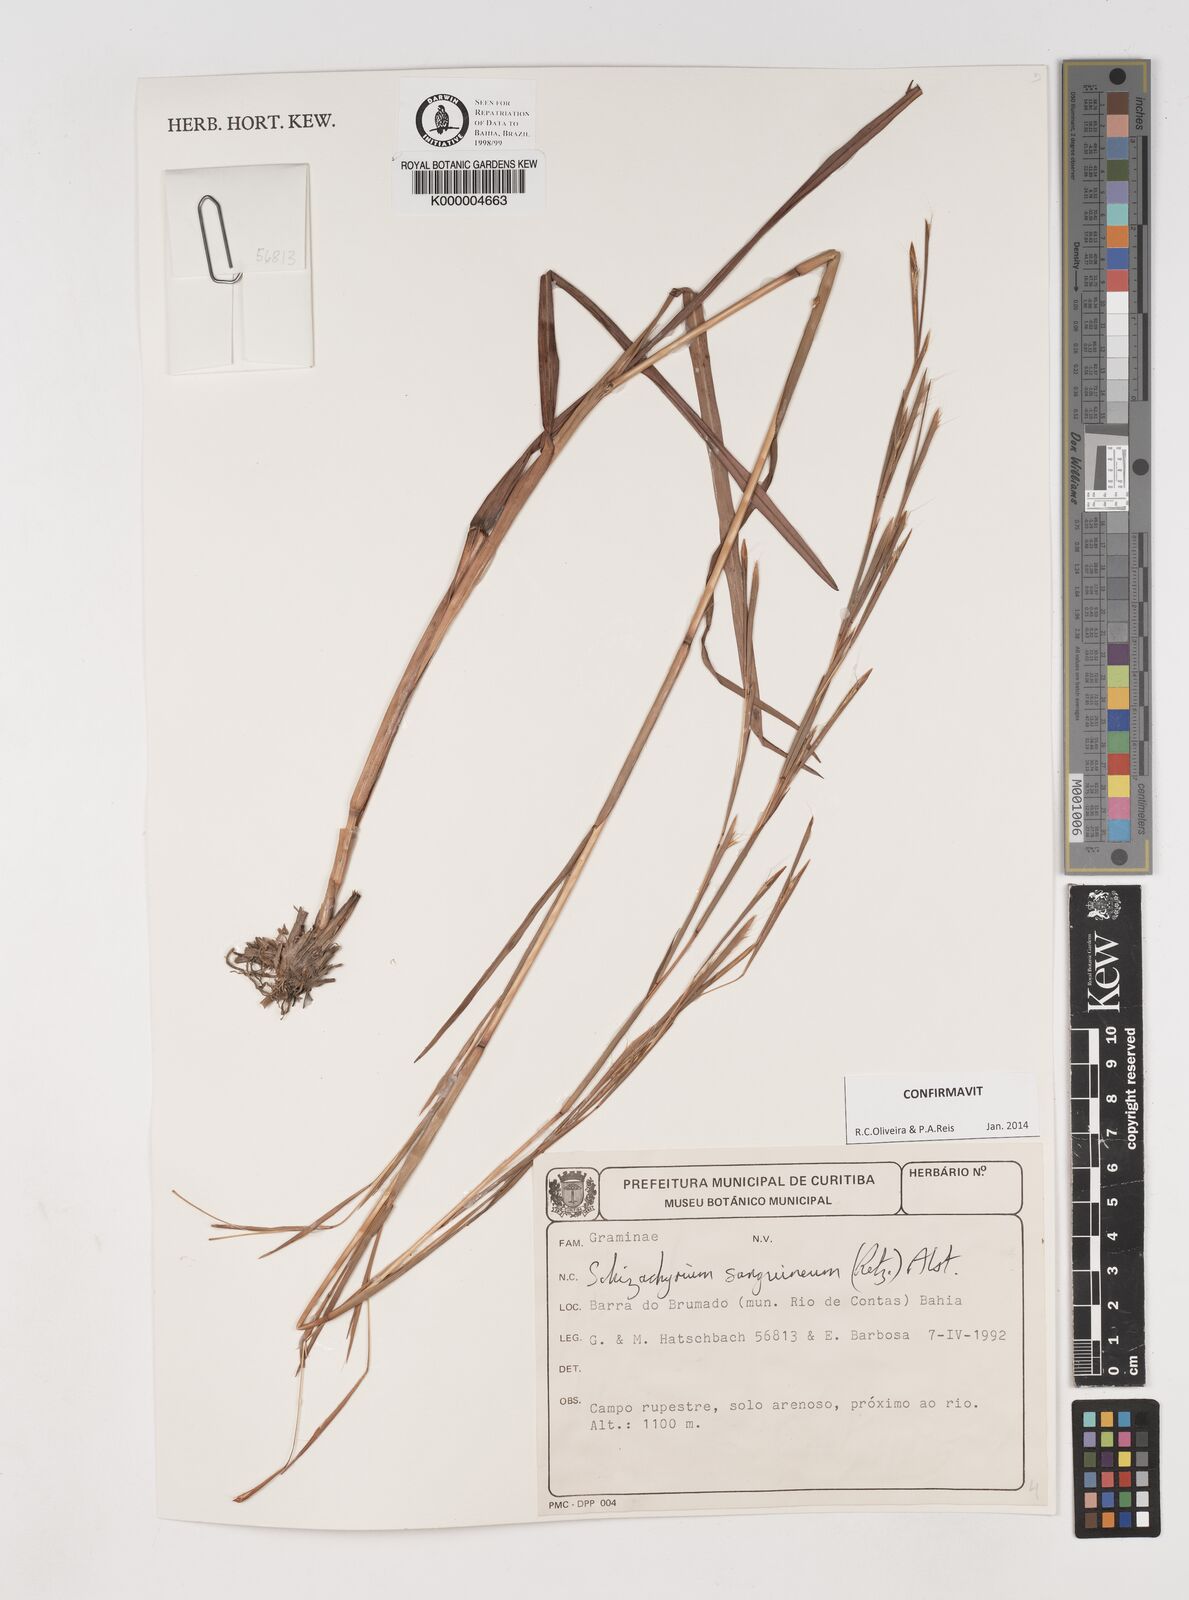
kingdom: Plantae
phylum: Tracheophyta
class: Liliopsida
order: Poales
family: Poaceae
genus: Schizachyrium
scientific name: Schizachyrium sanguineum
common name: Crimson bluestem
